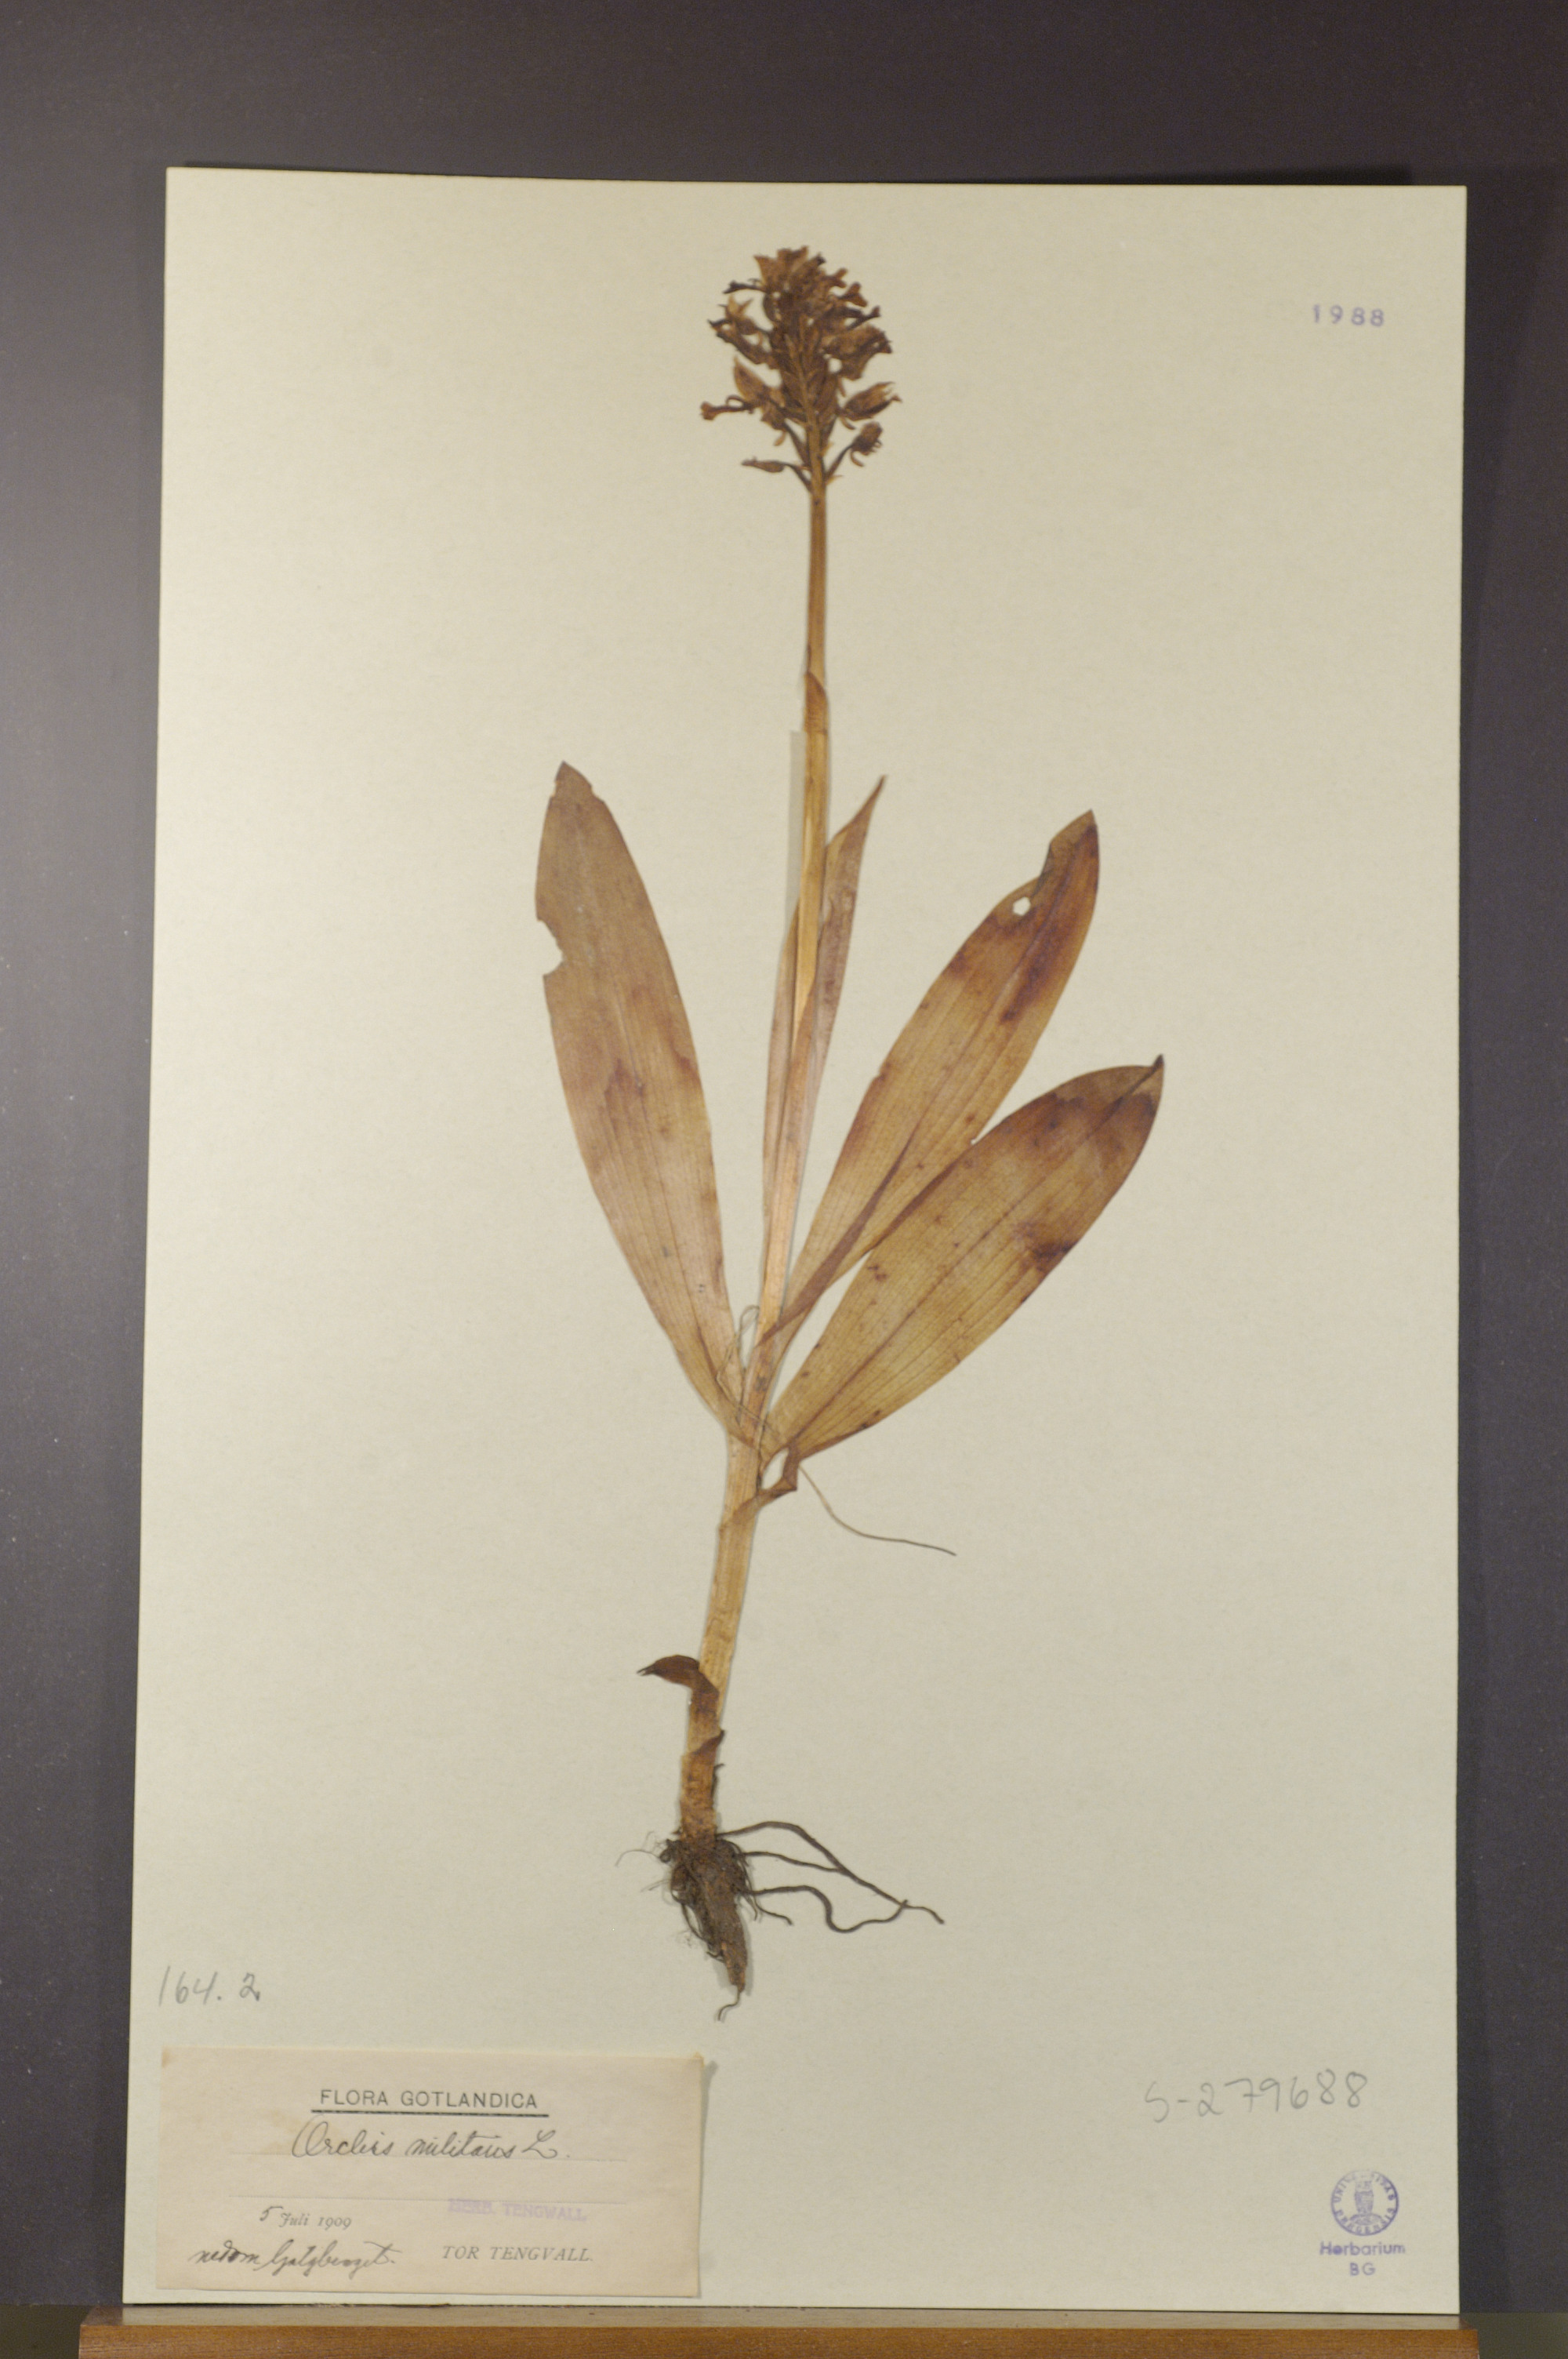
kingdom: Plantae
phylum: Tracheophyta
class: Liliopsida
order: Asparagales
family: Orchidaceae
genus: Orchis
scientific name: Orchis militaris
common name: Military orchid
